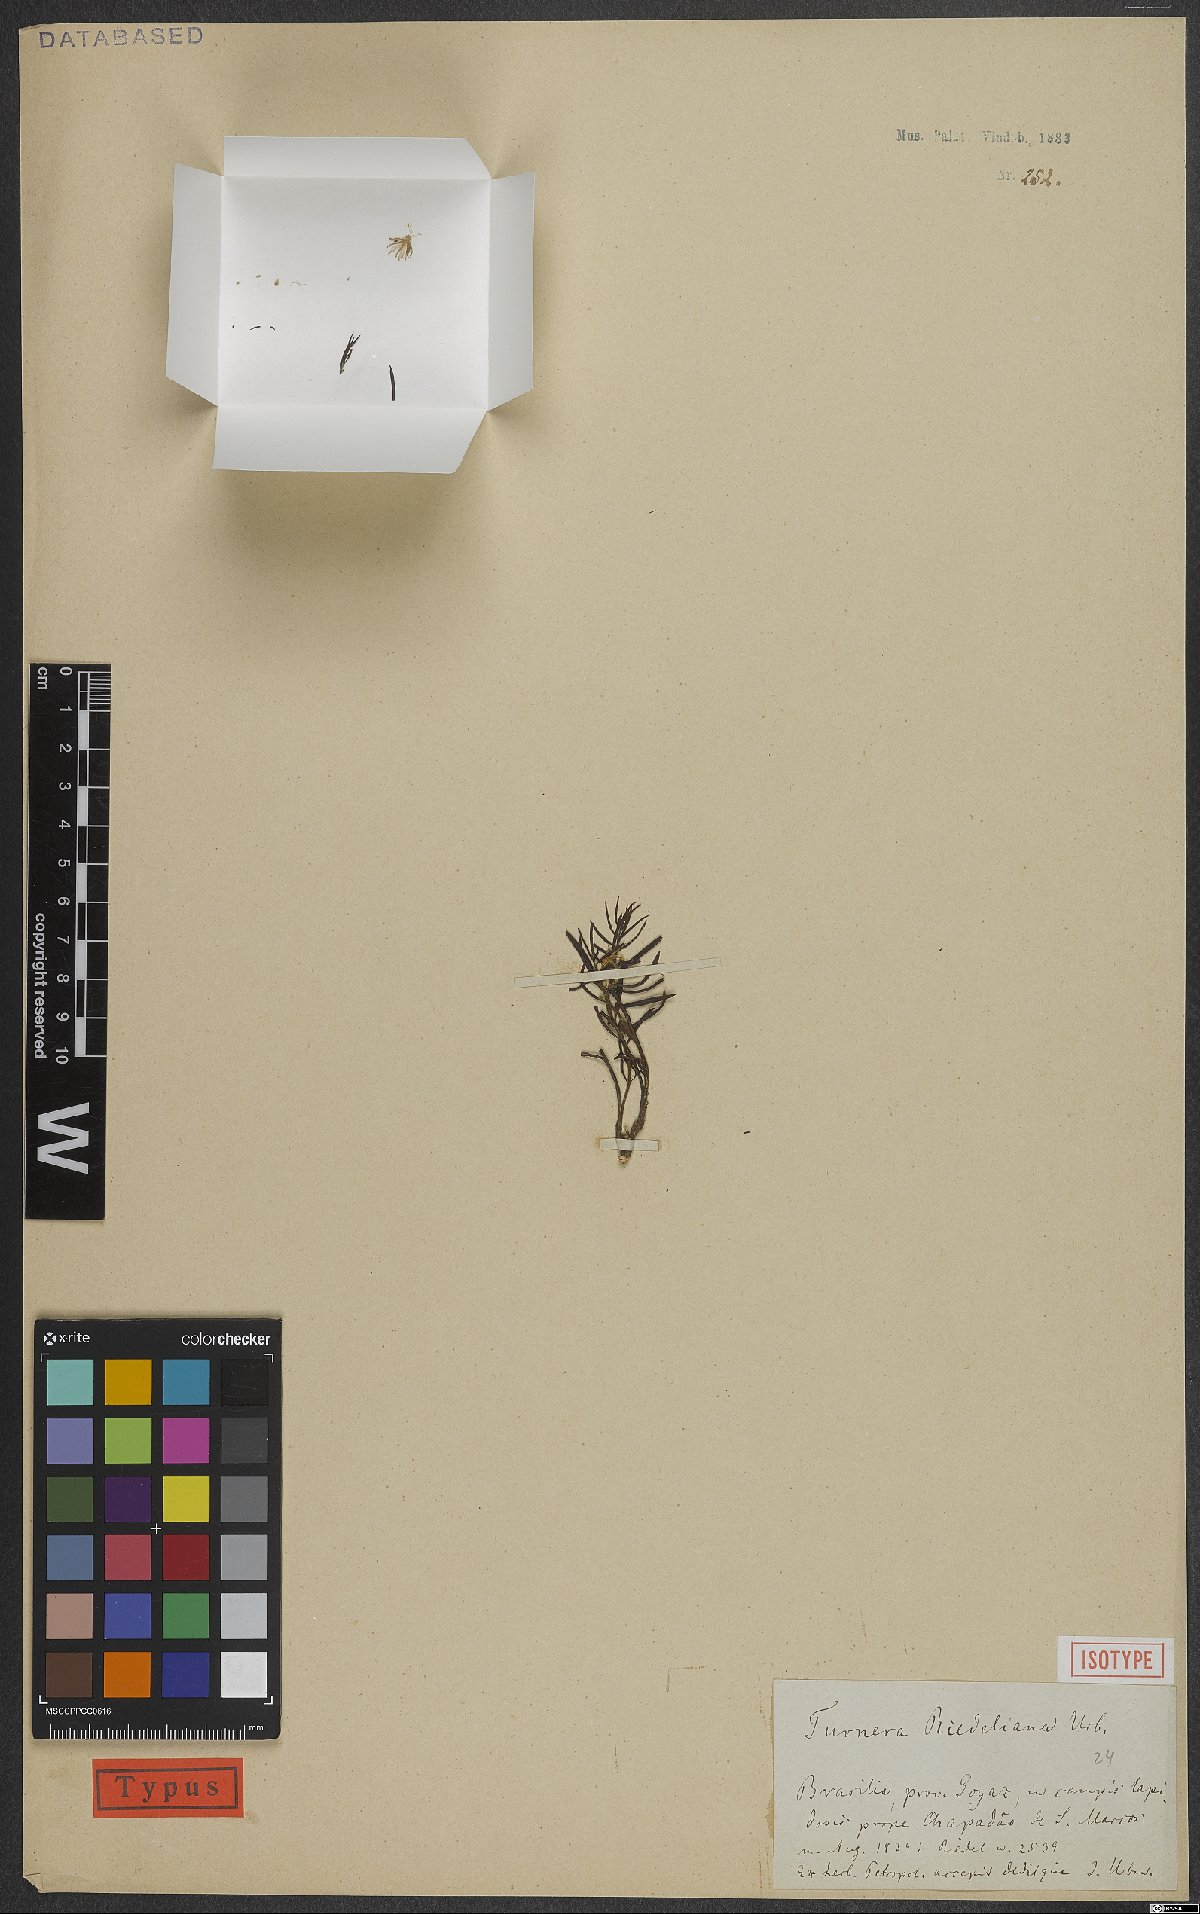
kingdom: Plantae
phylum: Tracheophyta
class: Magnoliopsida
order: Malpighiales
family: Turneraceae
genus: Turnera
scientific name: Turnera riedeliana
